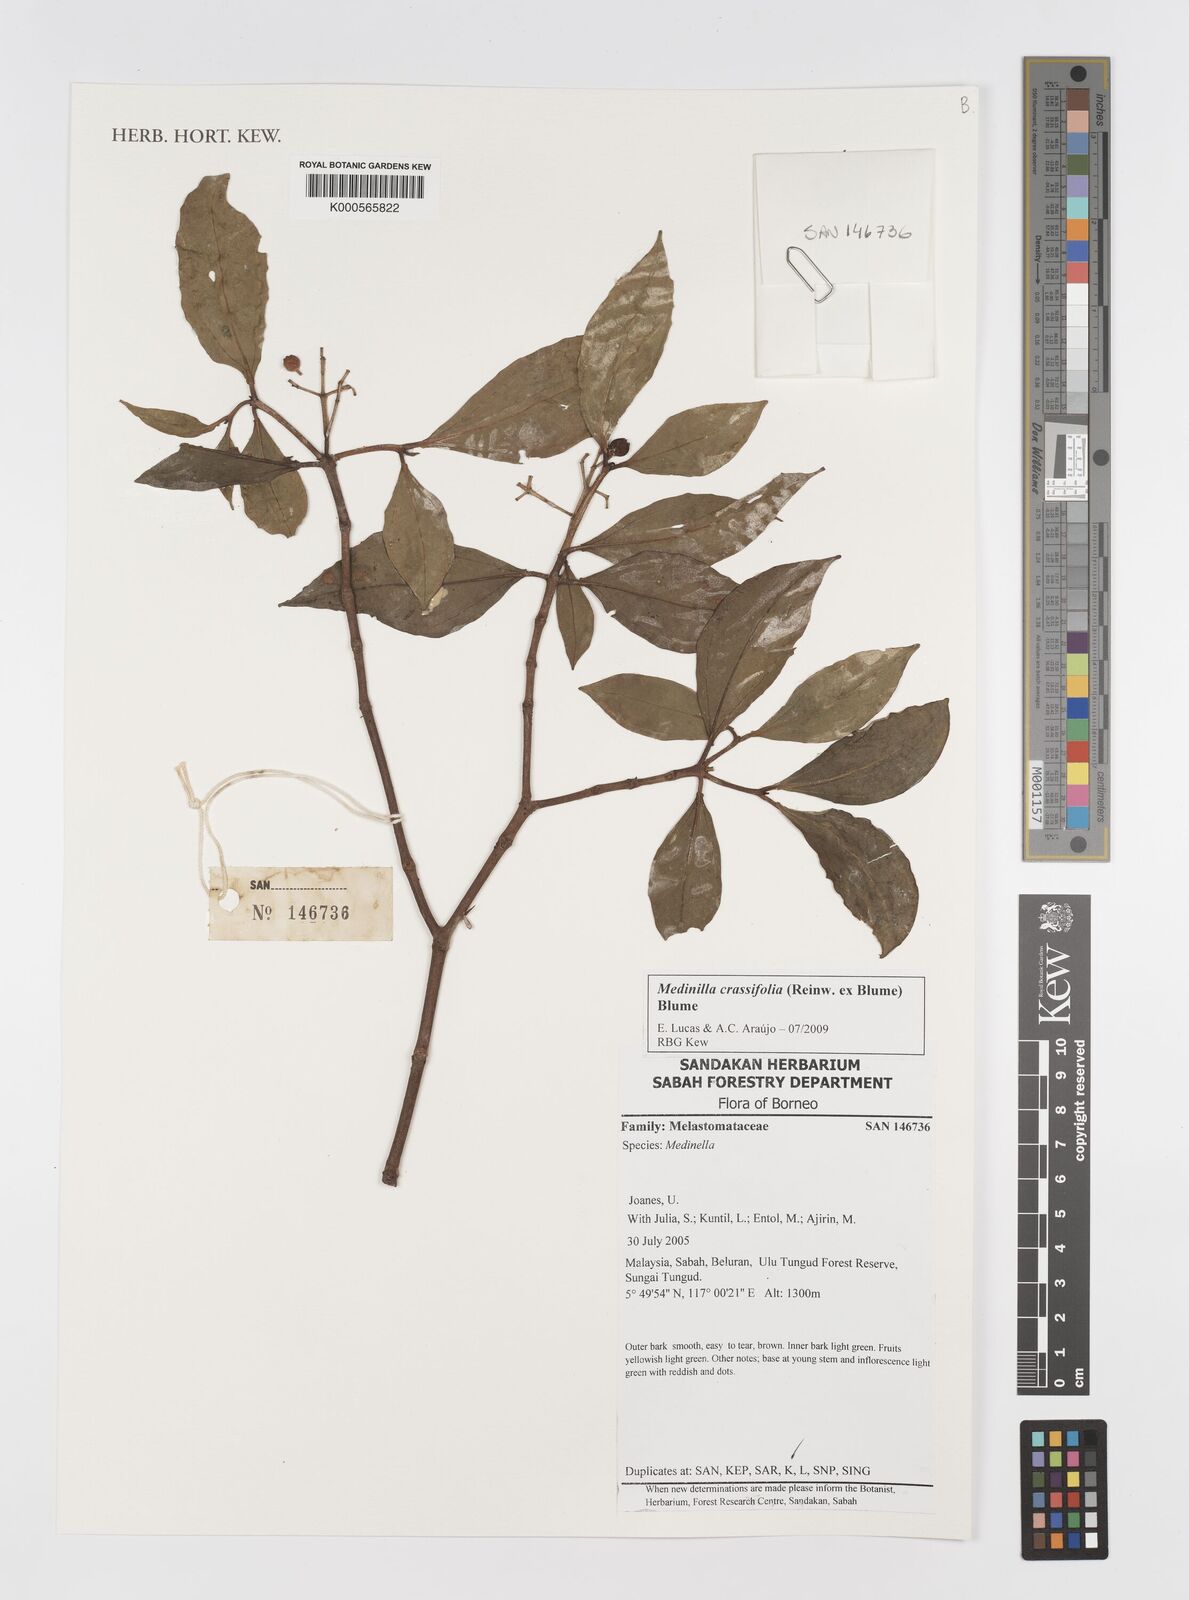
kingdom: Plantae
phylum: Tracheophyta
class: Magnoliopsida
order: Myrtales
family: Melastomataceae
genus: Medinilla
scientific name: Medinilla crassifolia
